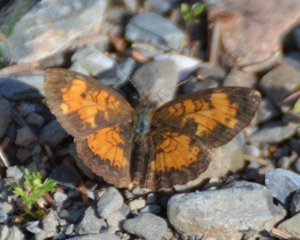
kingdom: Animalia
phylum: Arthropoda
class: Insecta
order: Lepidoptera
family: Nymphalidae
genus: Phyciodes
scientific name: Phyciodes tharos
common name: Northern Crescent
